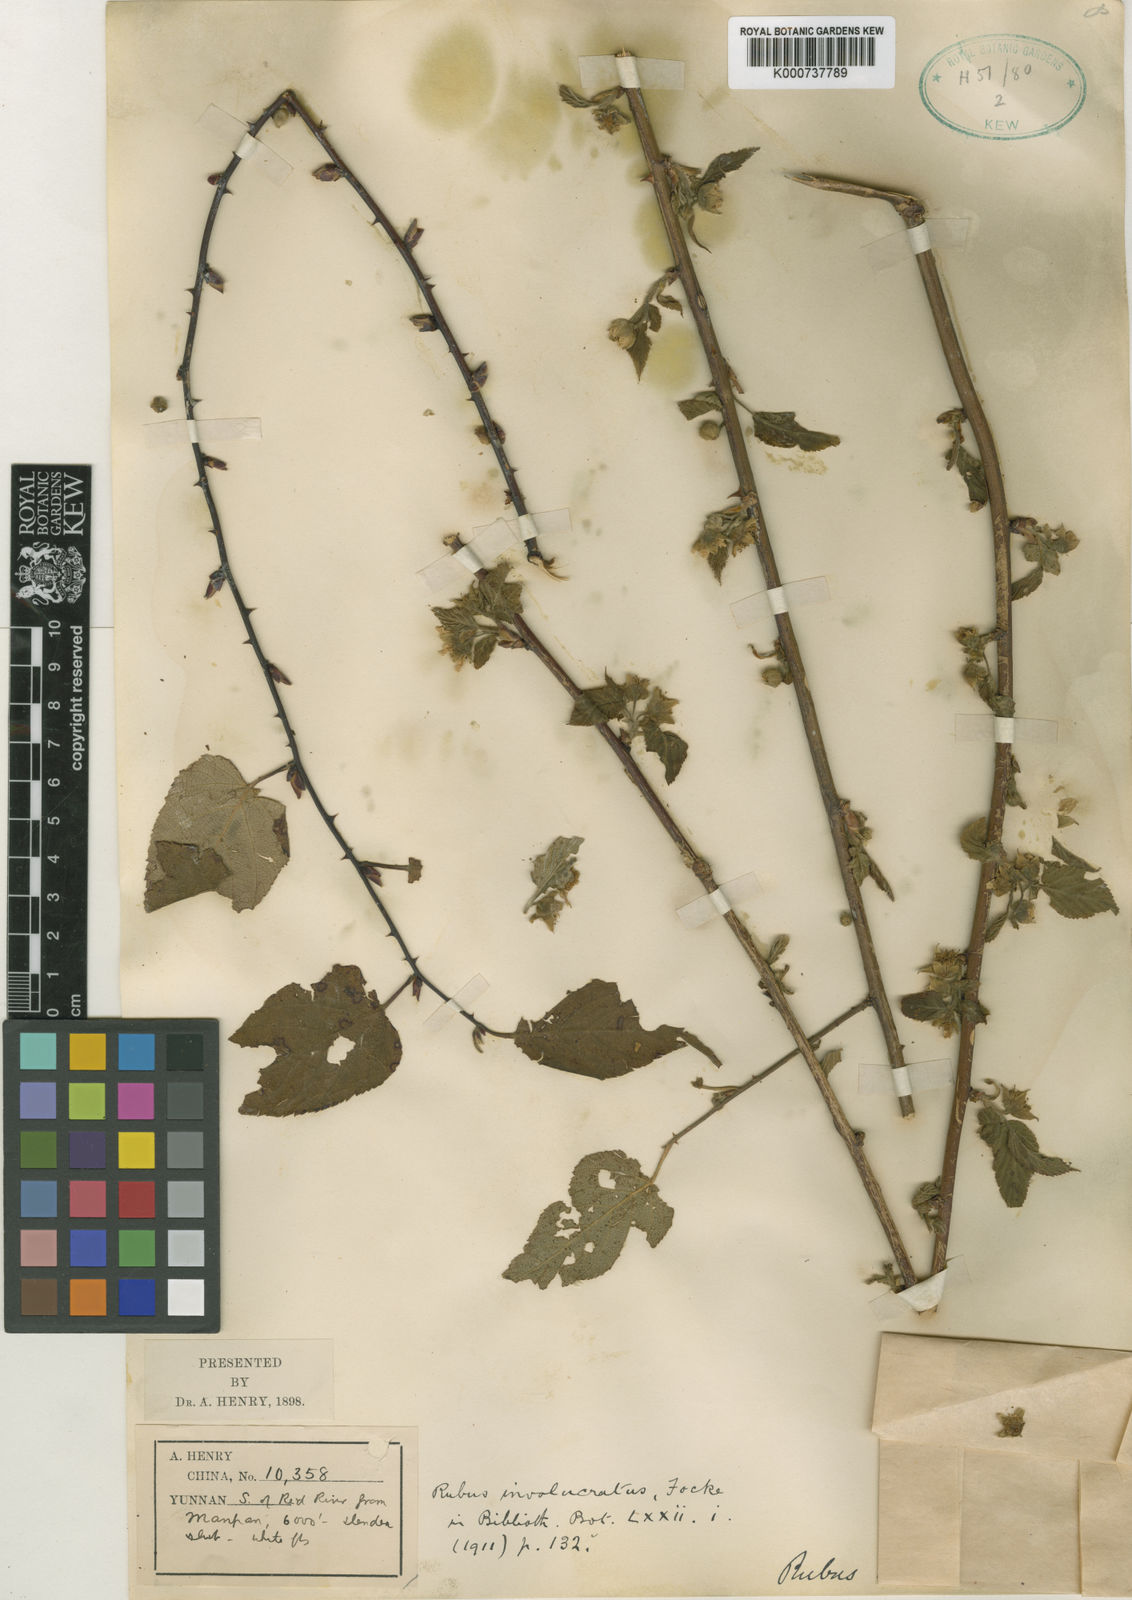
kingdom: Plantae
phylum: Tracheophyta
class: Magnoliopsida
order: Rosales
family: Rosaceae
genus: Rubus
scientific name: Rubus corchorifolius
